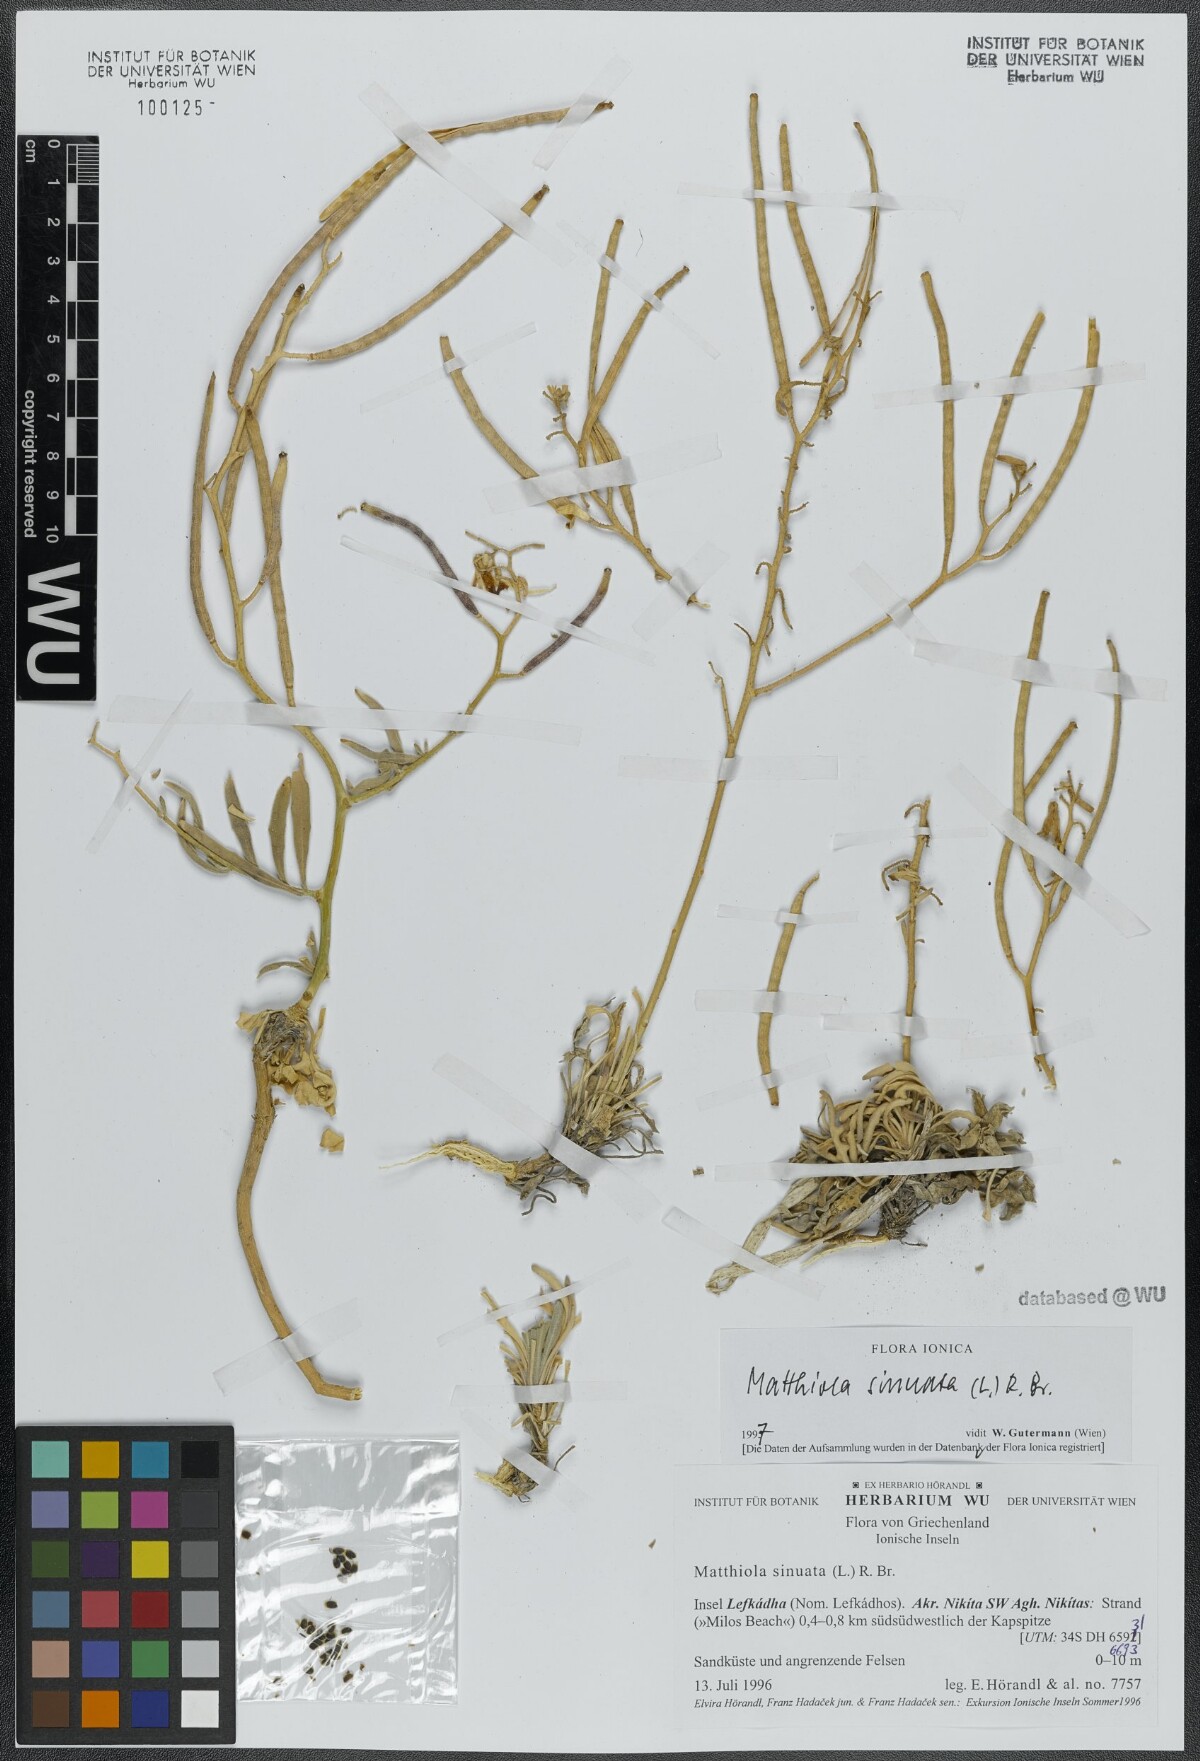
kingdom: Plantae
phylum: Tracheophyta
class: Magnoliopsida
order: Brassicales
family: Brassicaceae
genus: Matthiola
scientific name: Matthiola sinuata
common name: Sea stock
